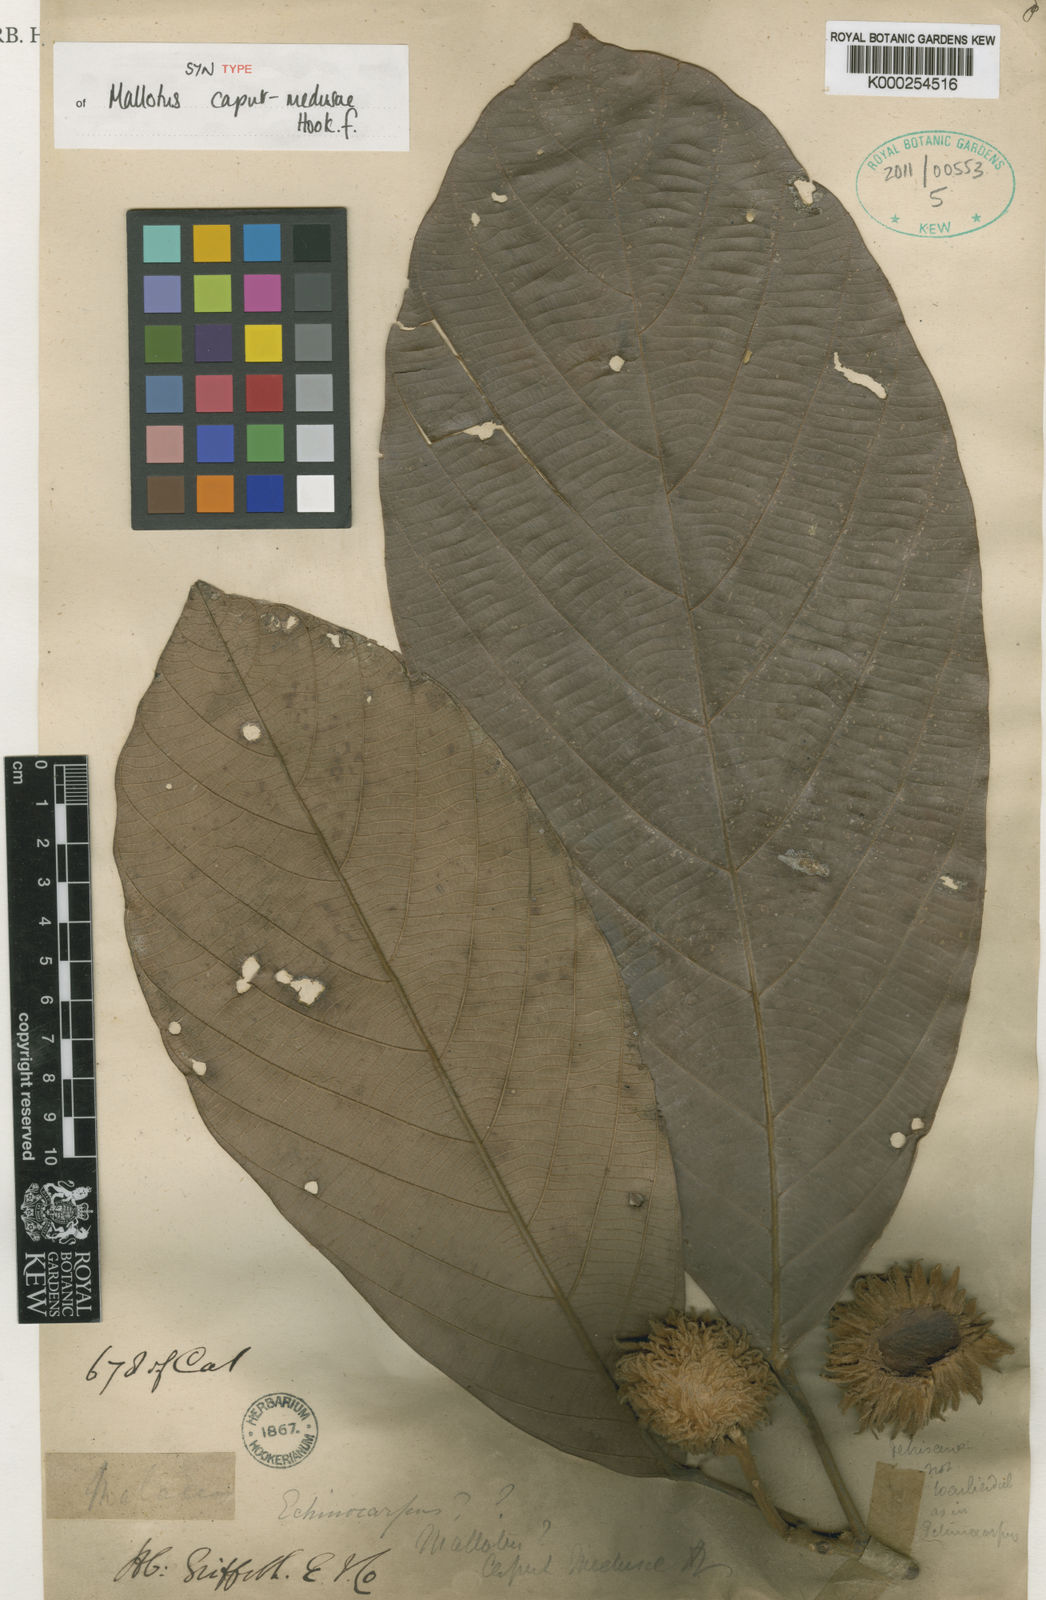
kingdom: Plantae
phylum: Tracheophyta
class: Magnoliopsida
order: Malpighiales
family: Euphorbiaceae
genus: Ptychopyxis
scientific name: Ptychopyxis caput-medusae
